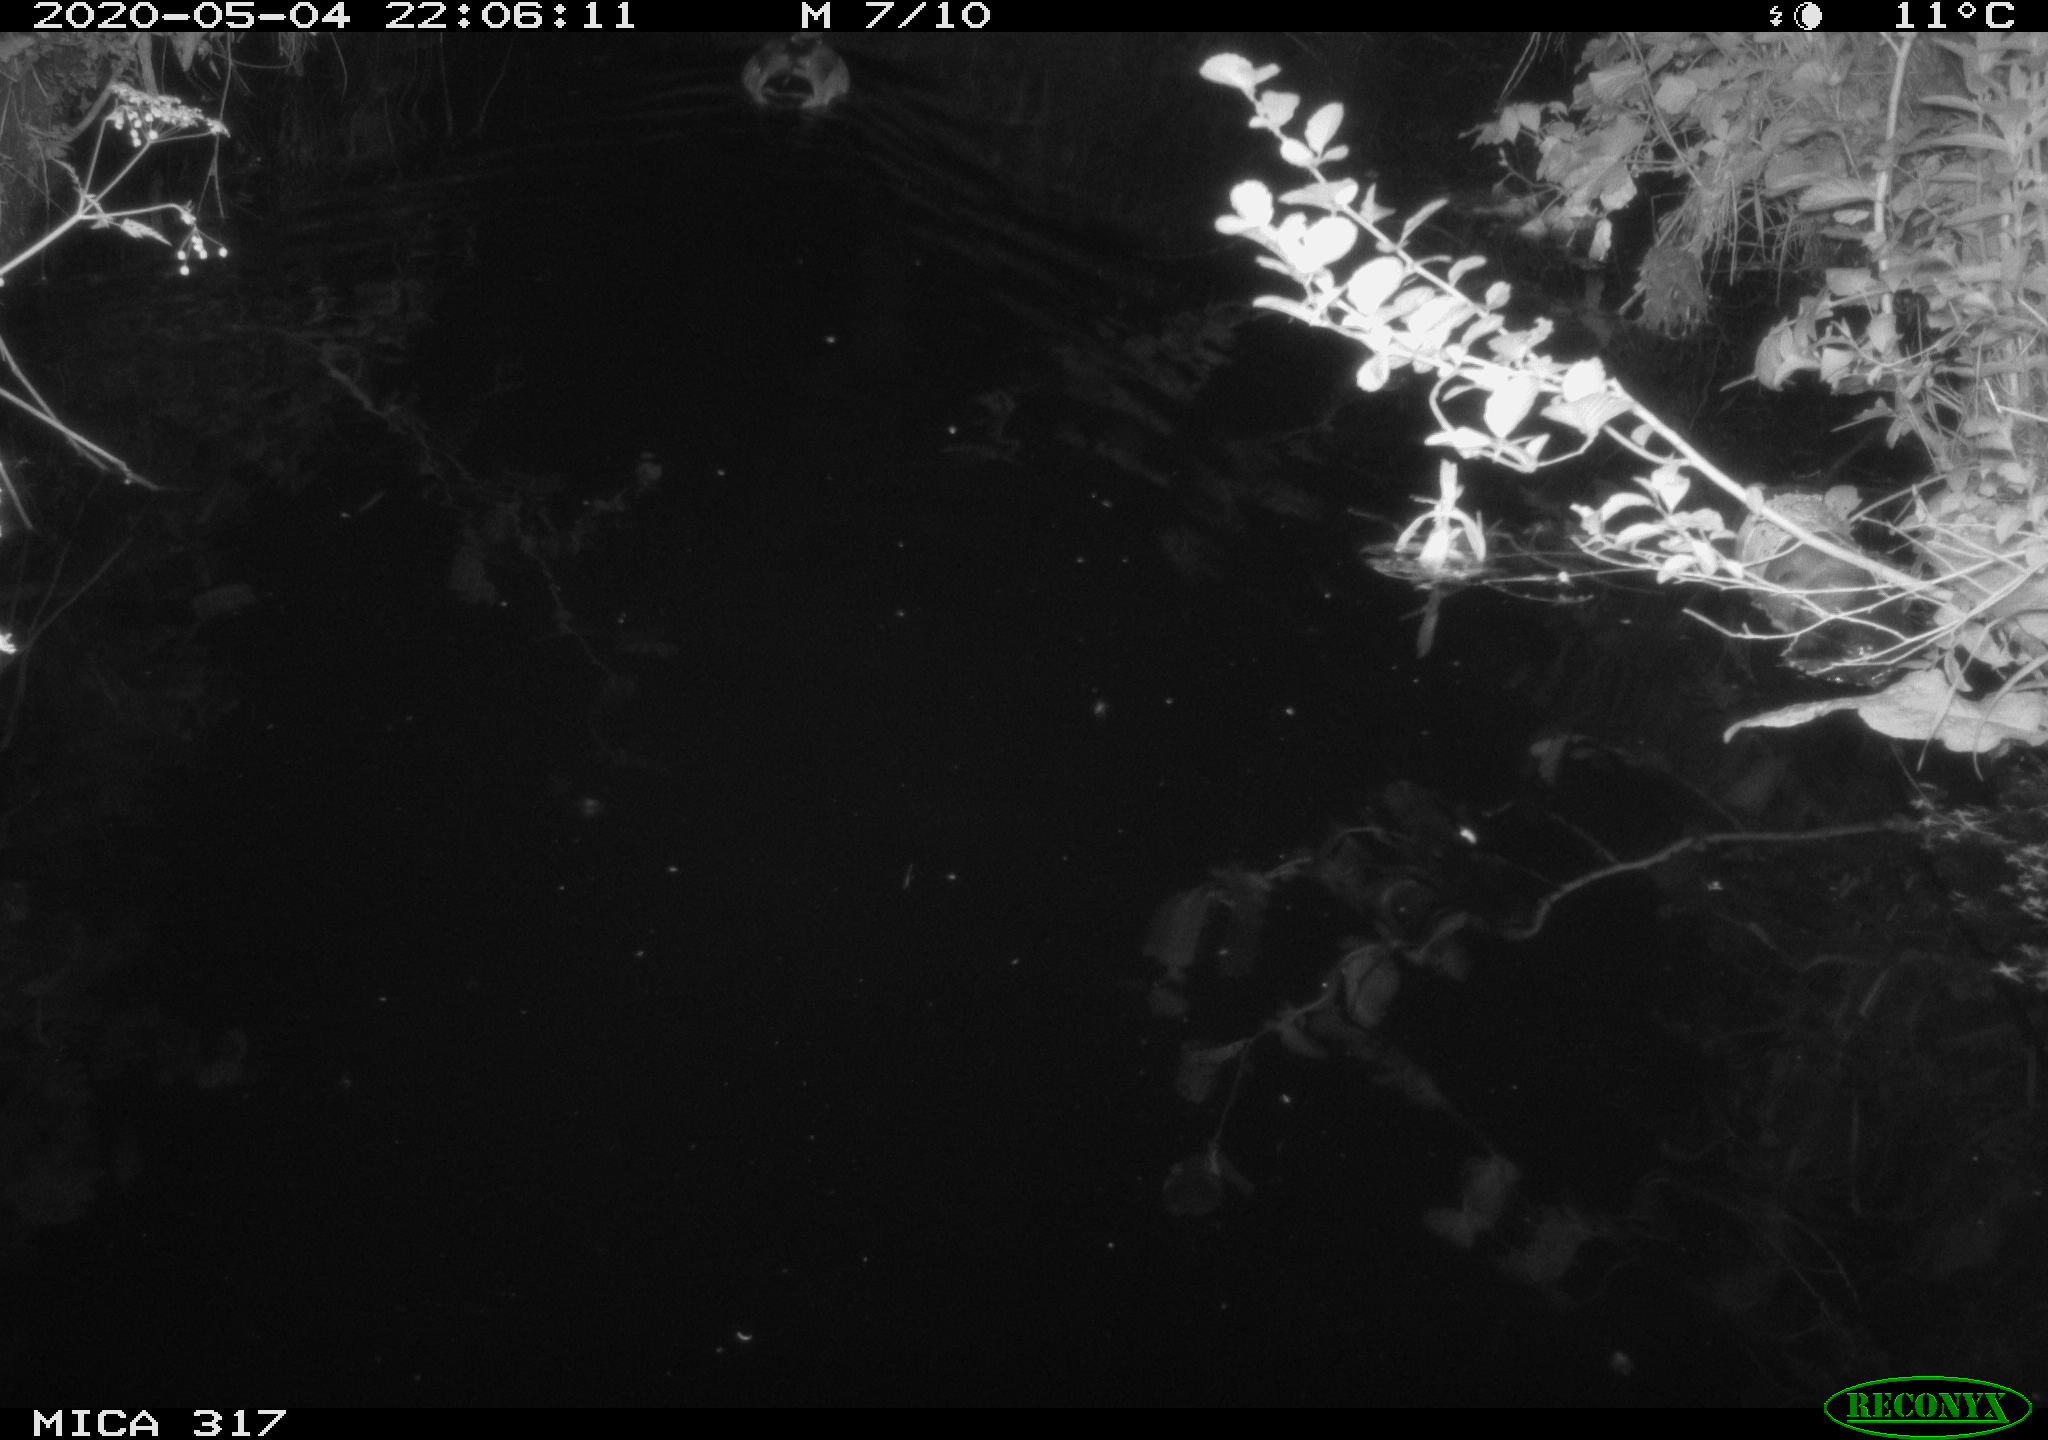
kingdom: Animalia
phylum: Chordata
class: Aves
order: Anseriformes
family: Anatidae
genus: Anas
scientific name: Anas platyrhynchos
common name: Mallard
